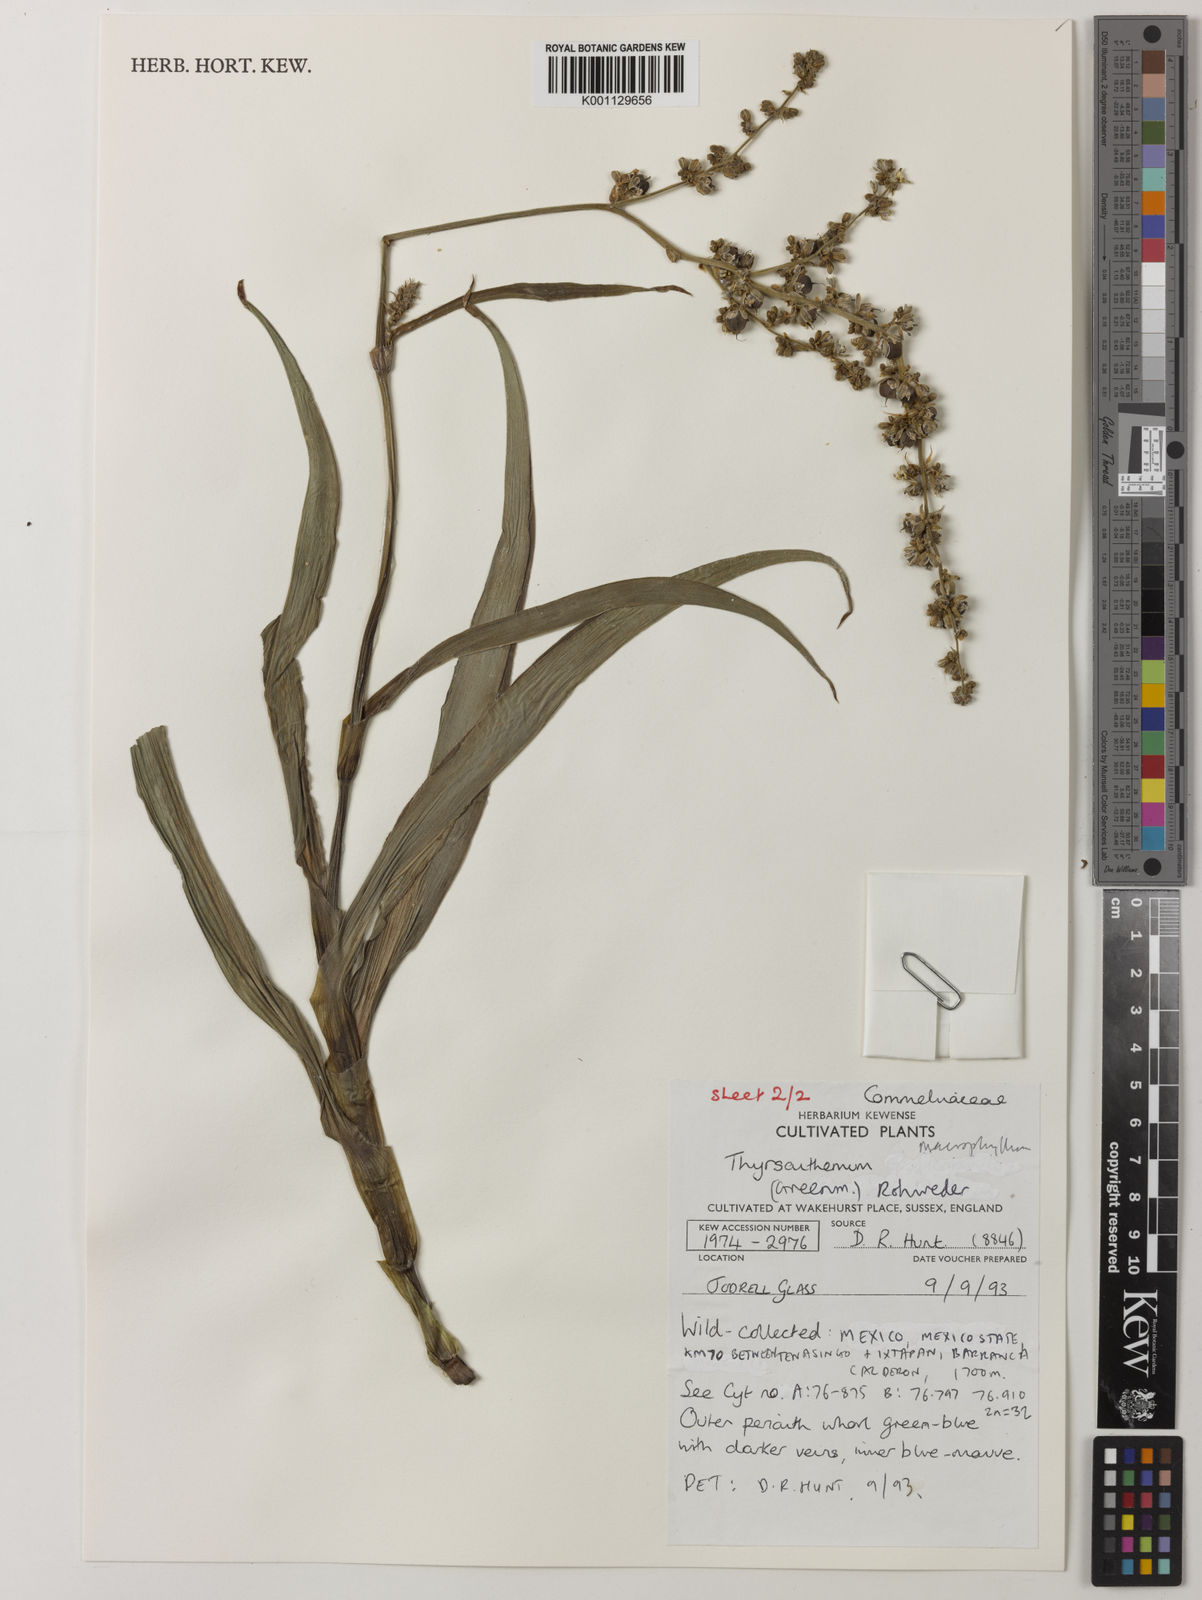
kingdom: Plantae
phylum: Tracheophyta
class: Liliopsida
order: Commelinales
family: Commelinaceae
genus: Thyrsanthemum
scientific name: Thyrsanthemum longifolium
